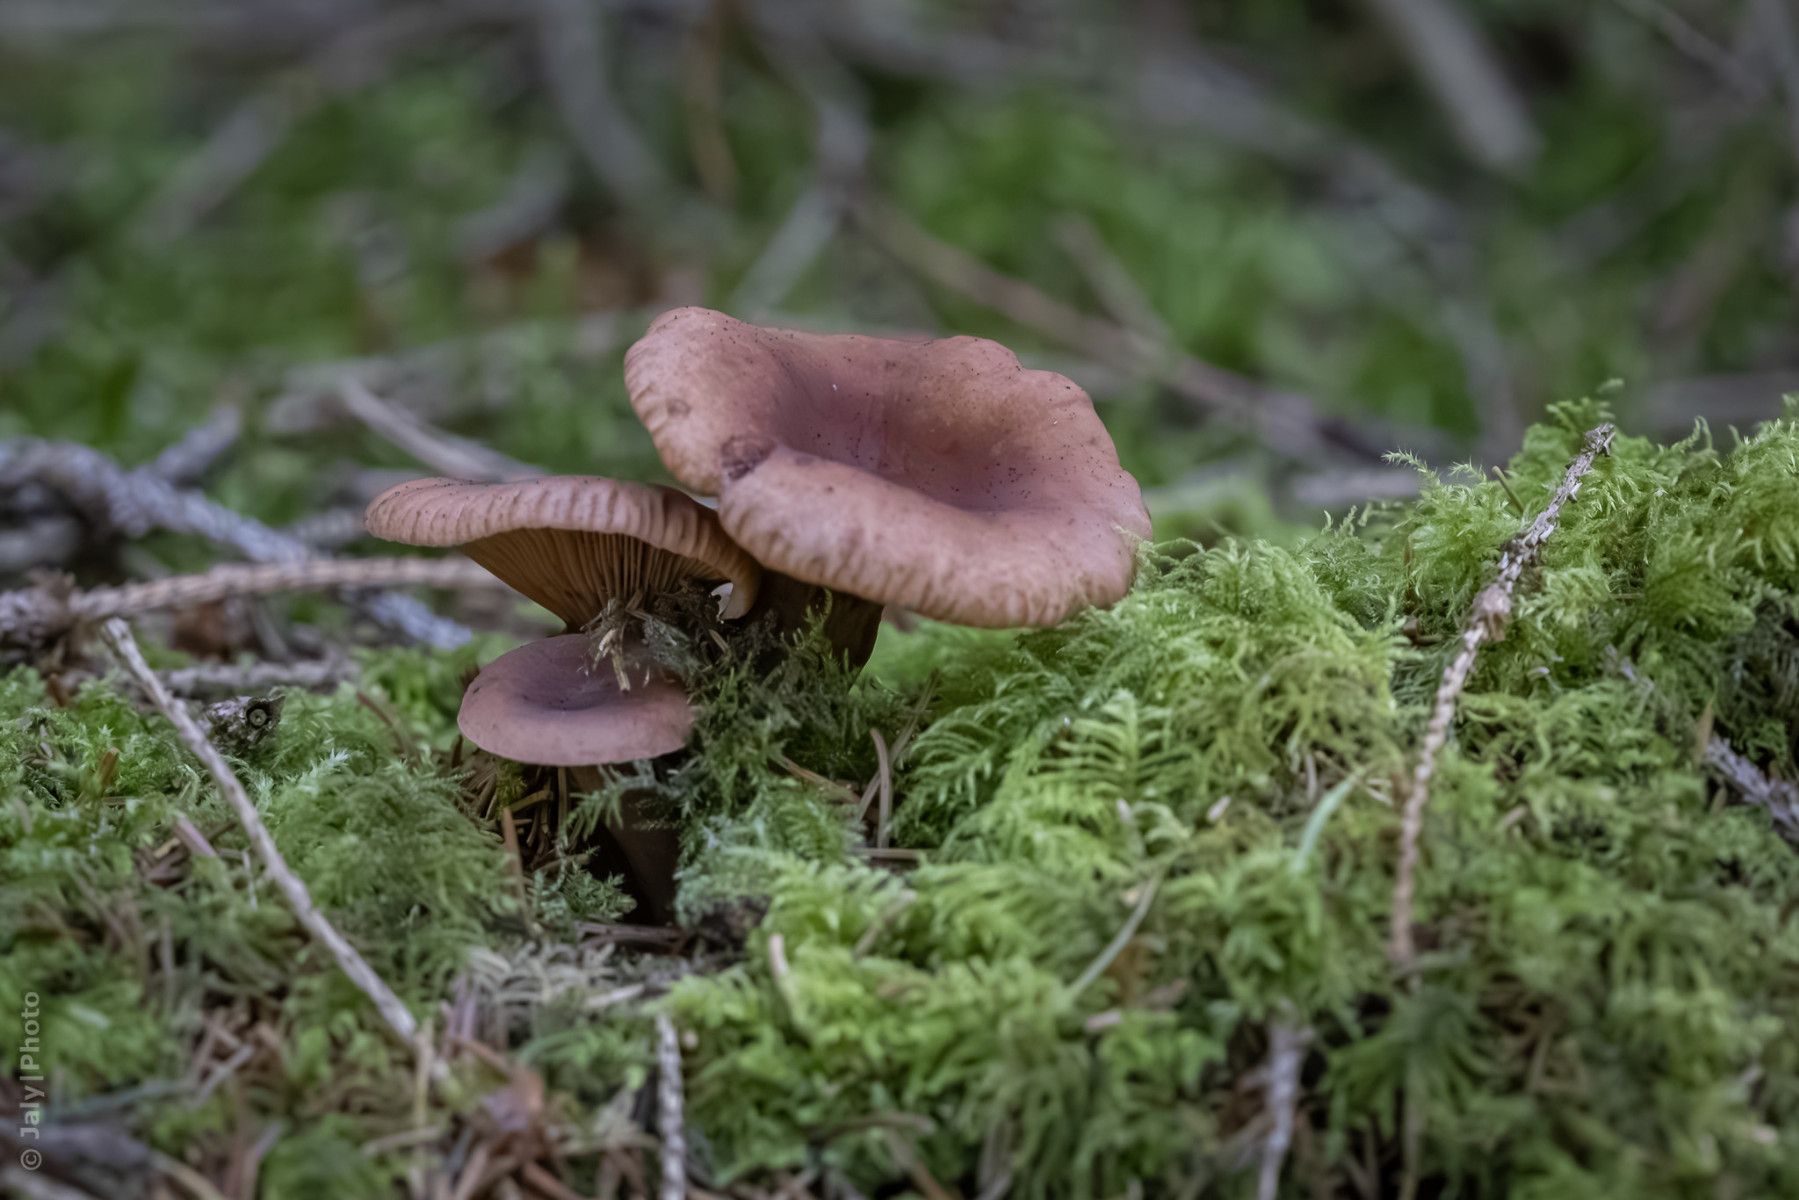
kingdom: Fungi
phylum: Basidiomycota
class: Agaricomycetes
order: Russulales
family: Russulaceae
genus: Lactarius
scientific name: Lactarius camphoratus
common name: kamfer-mælkehat
